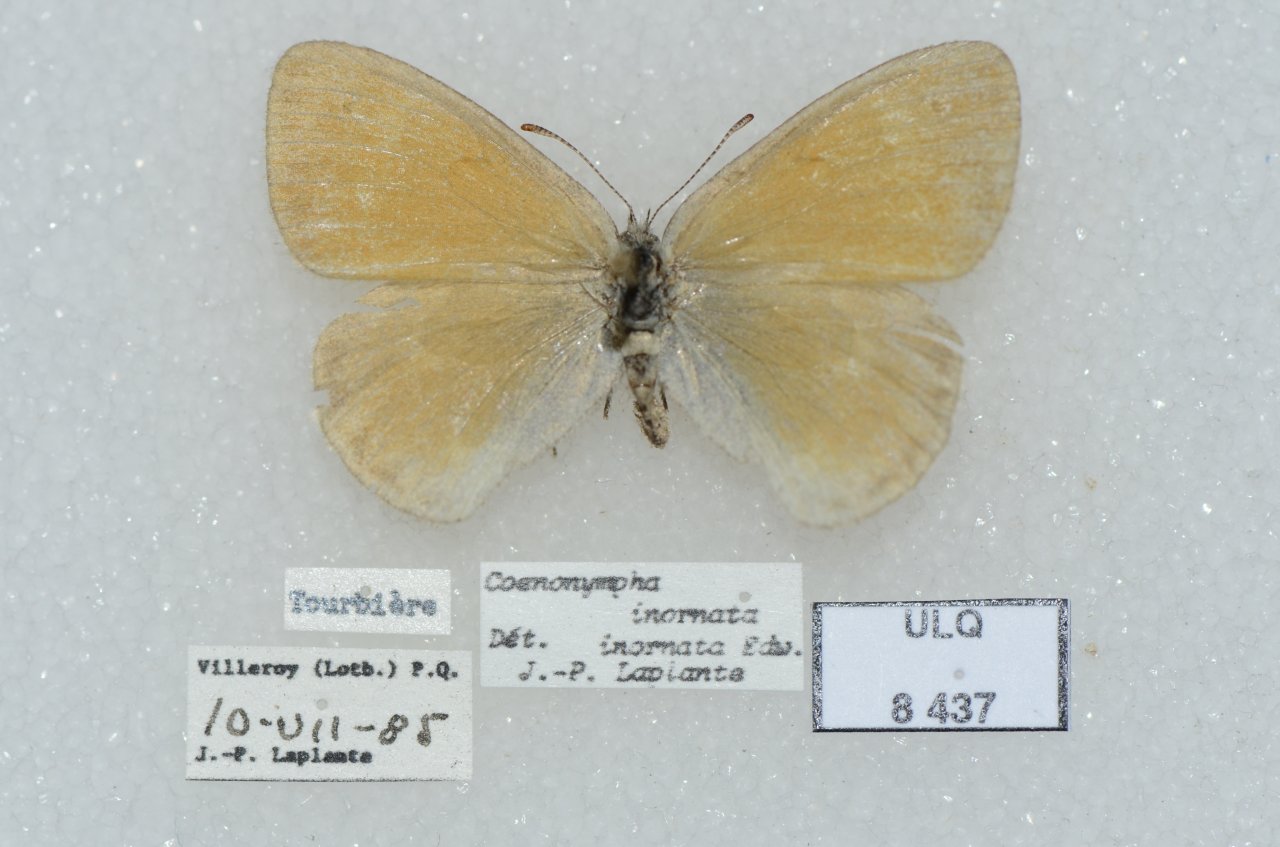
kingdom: Animalia
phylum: Arthropoda
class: Insecta
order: Lepidoptera
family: Nymphalidae
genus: Coenonympha
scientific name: Coenonympha tullia
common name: Large Heath
